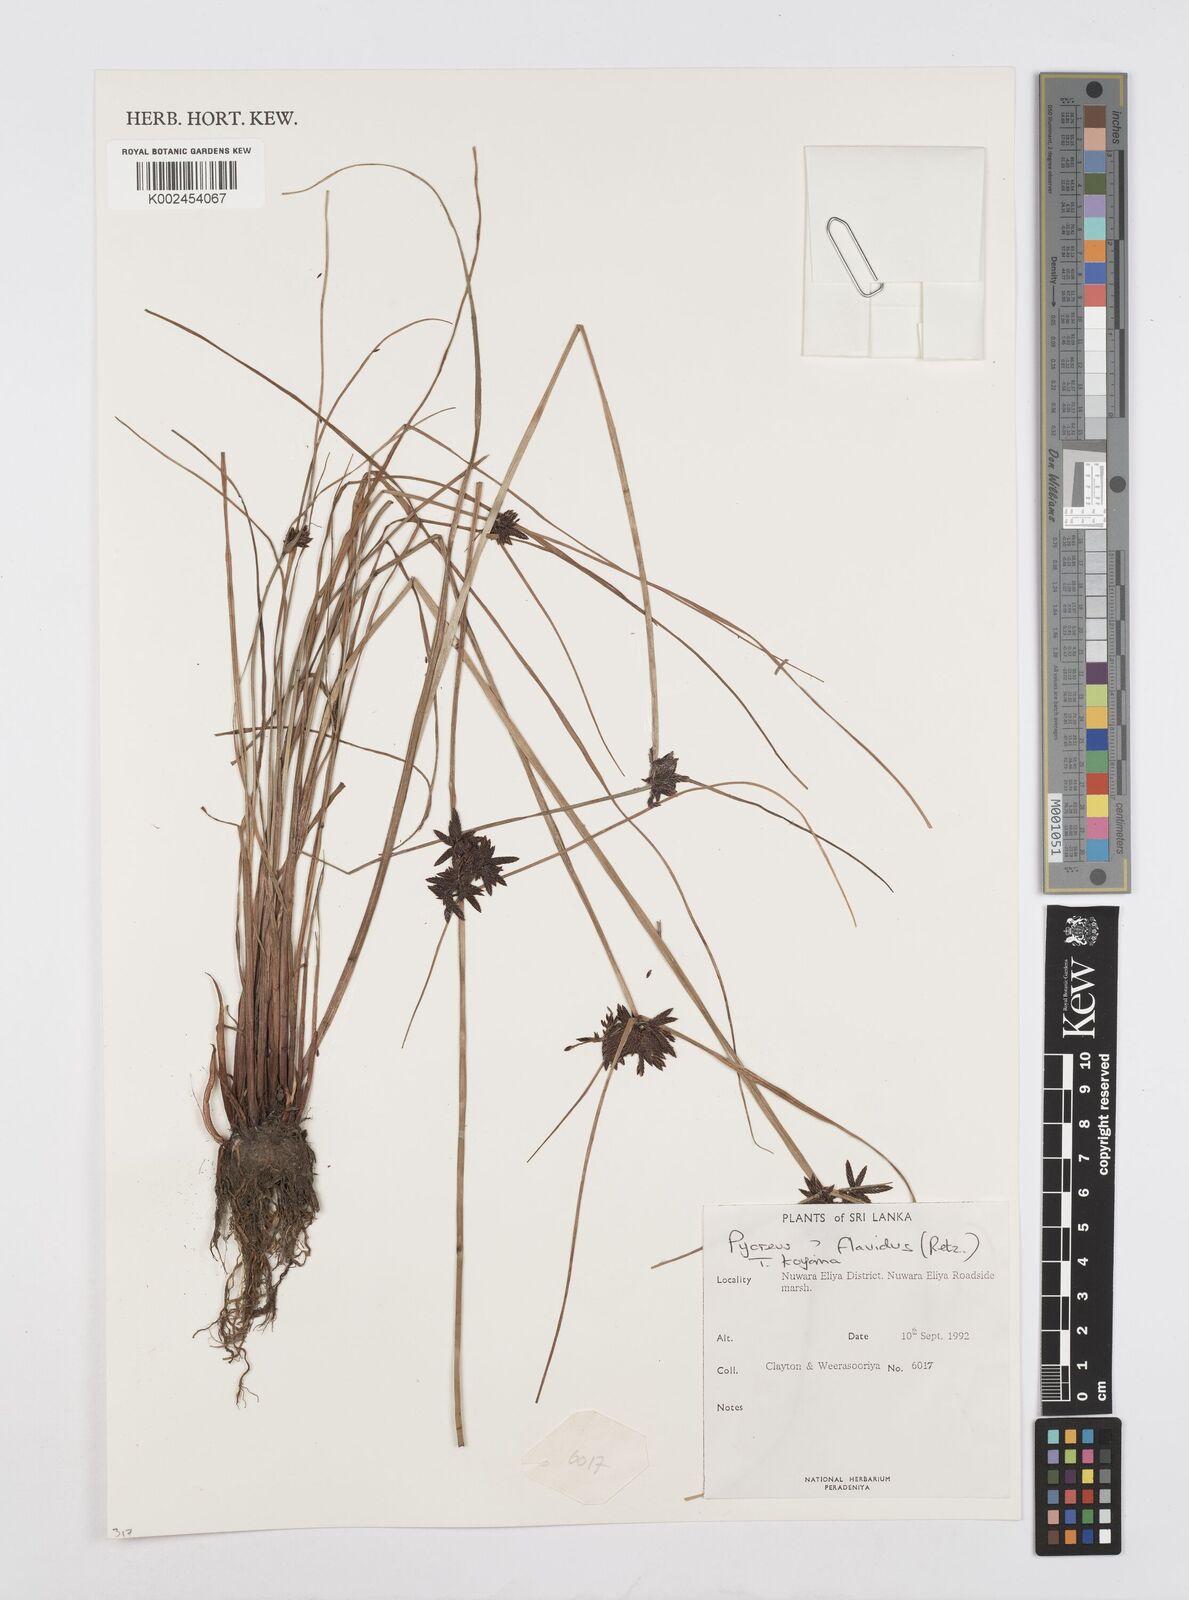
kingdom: Plantae
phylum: Tracheophyta
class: Liliopsida
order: Poales
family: Cyperaceae
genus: Cyperus
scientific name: Cyperus flavidus
